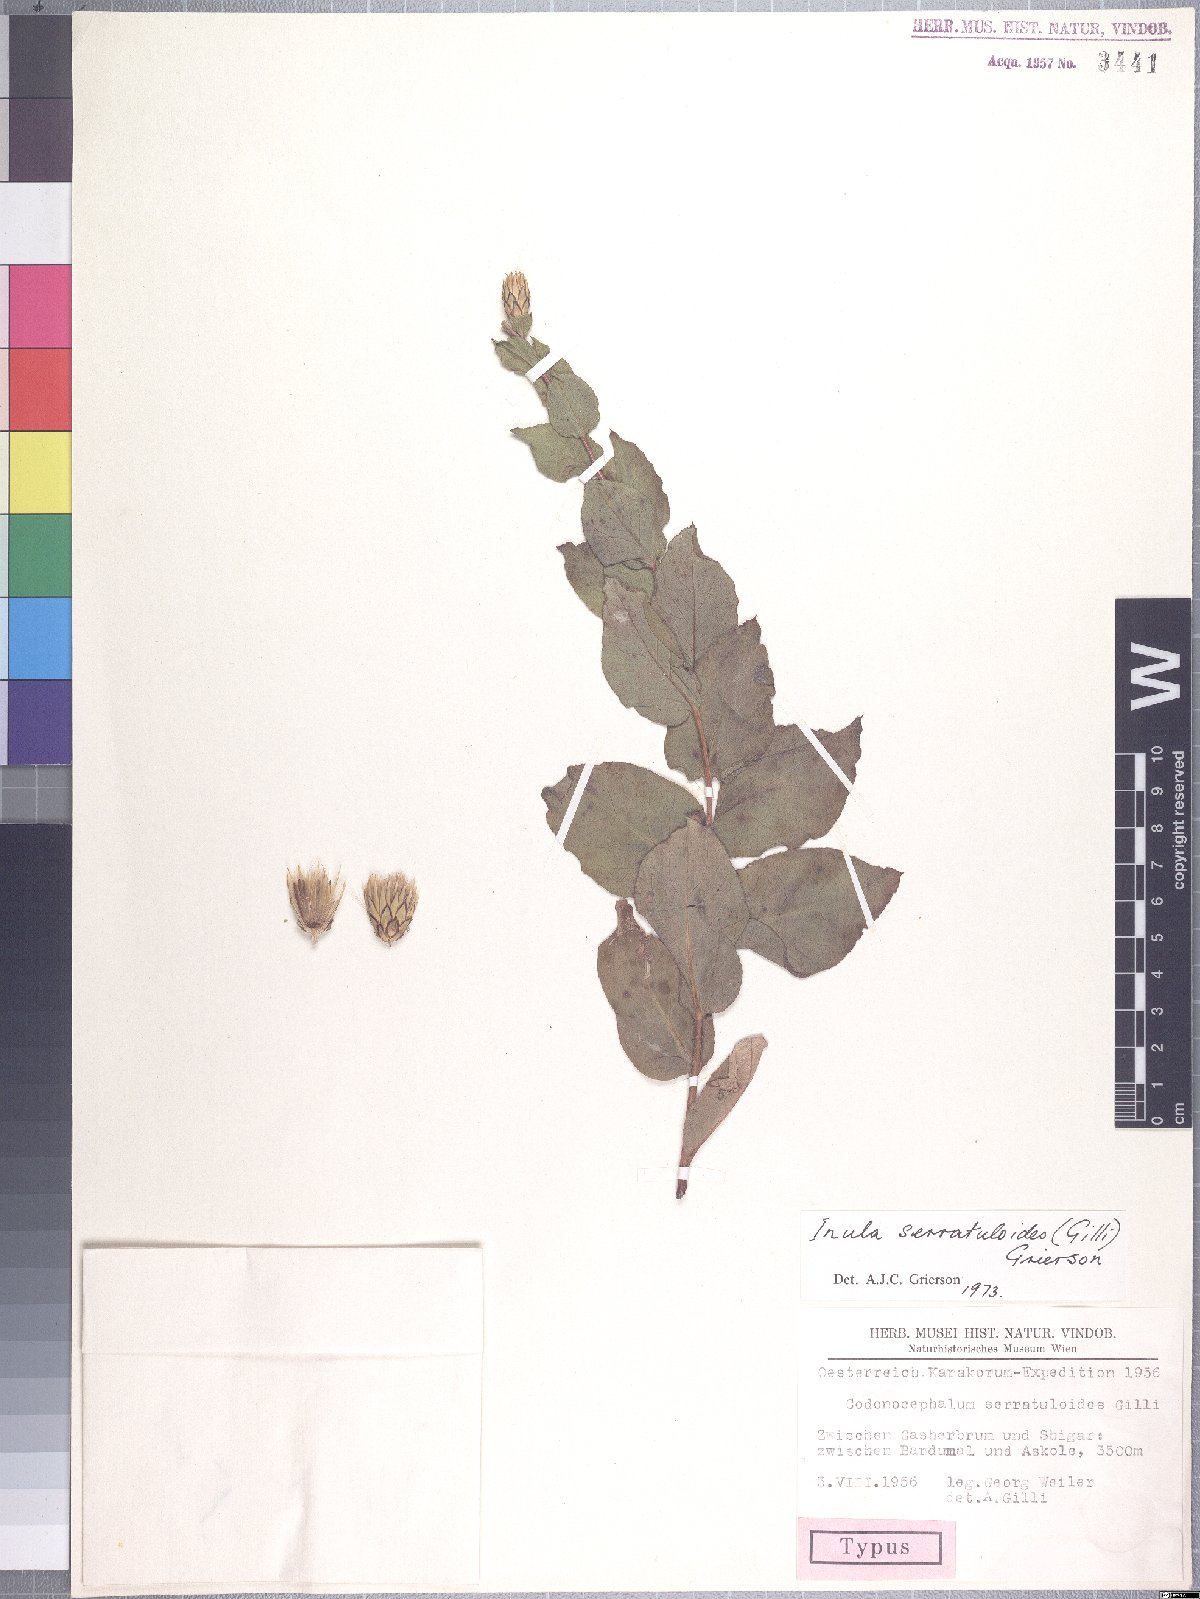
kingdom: Plantae
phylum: Tracheophyta
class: Magnoliopsida
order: Asterales
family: Asteraceae
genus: Shangwua
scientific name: Shangwua jacea
